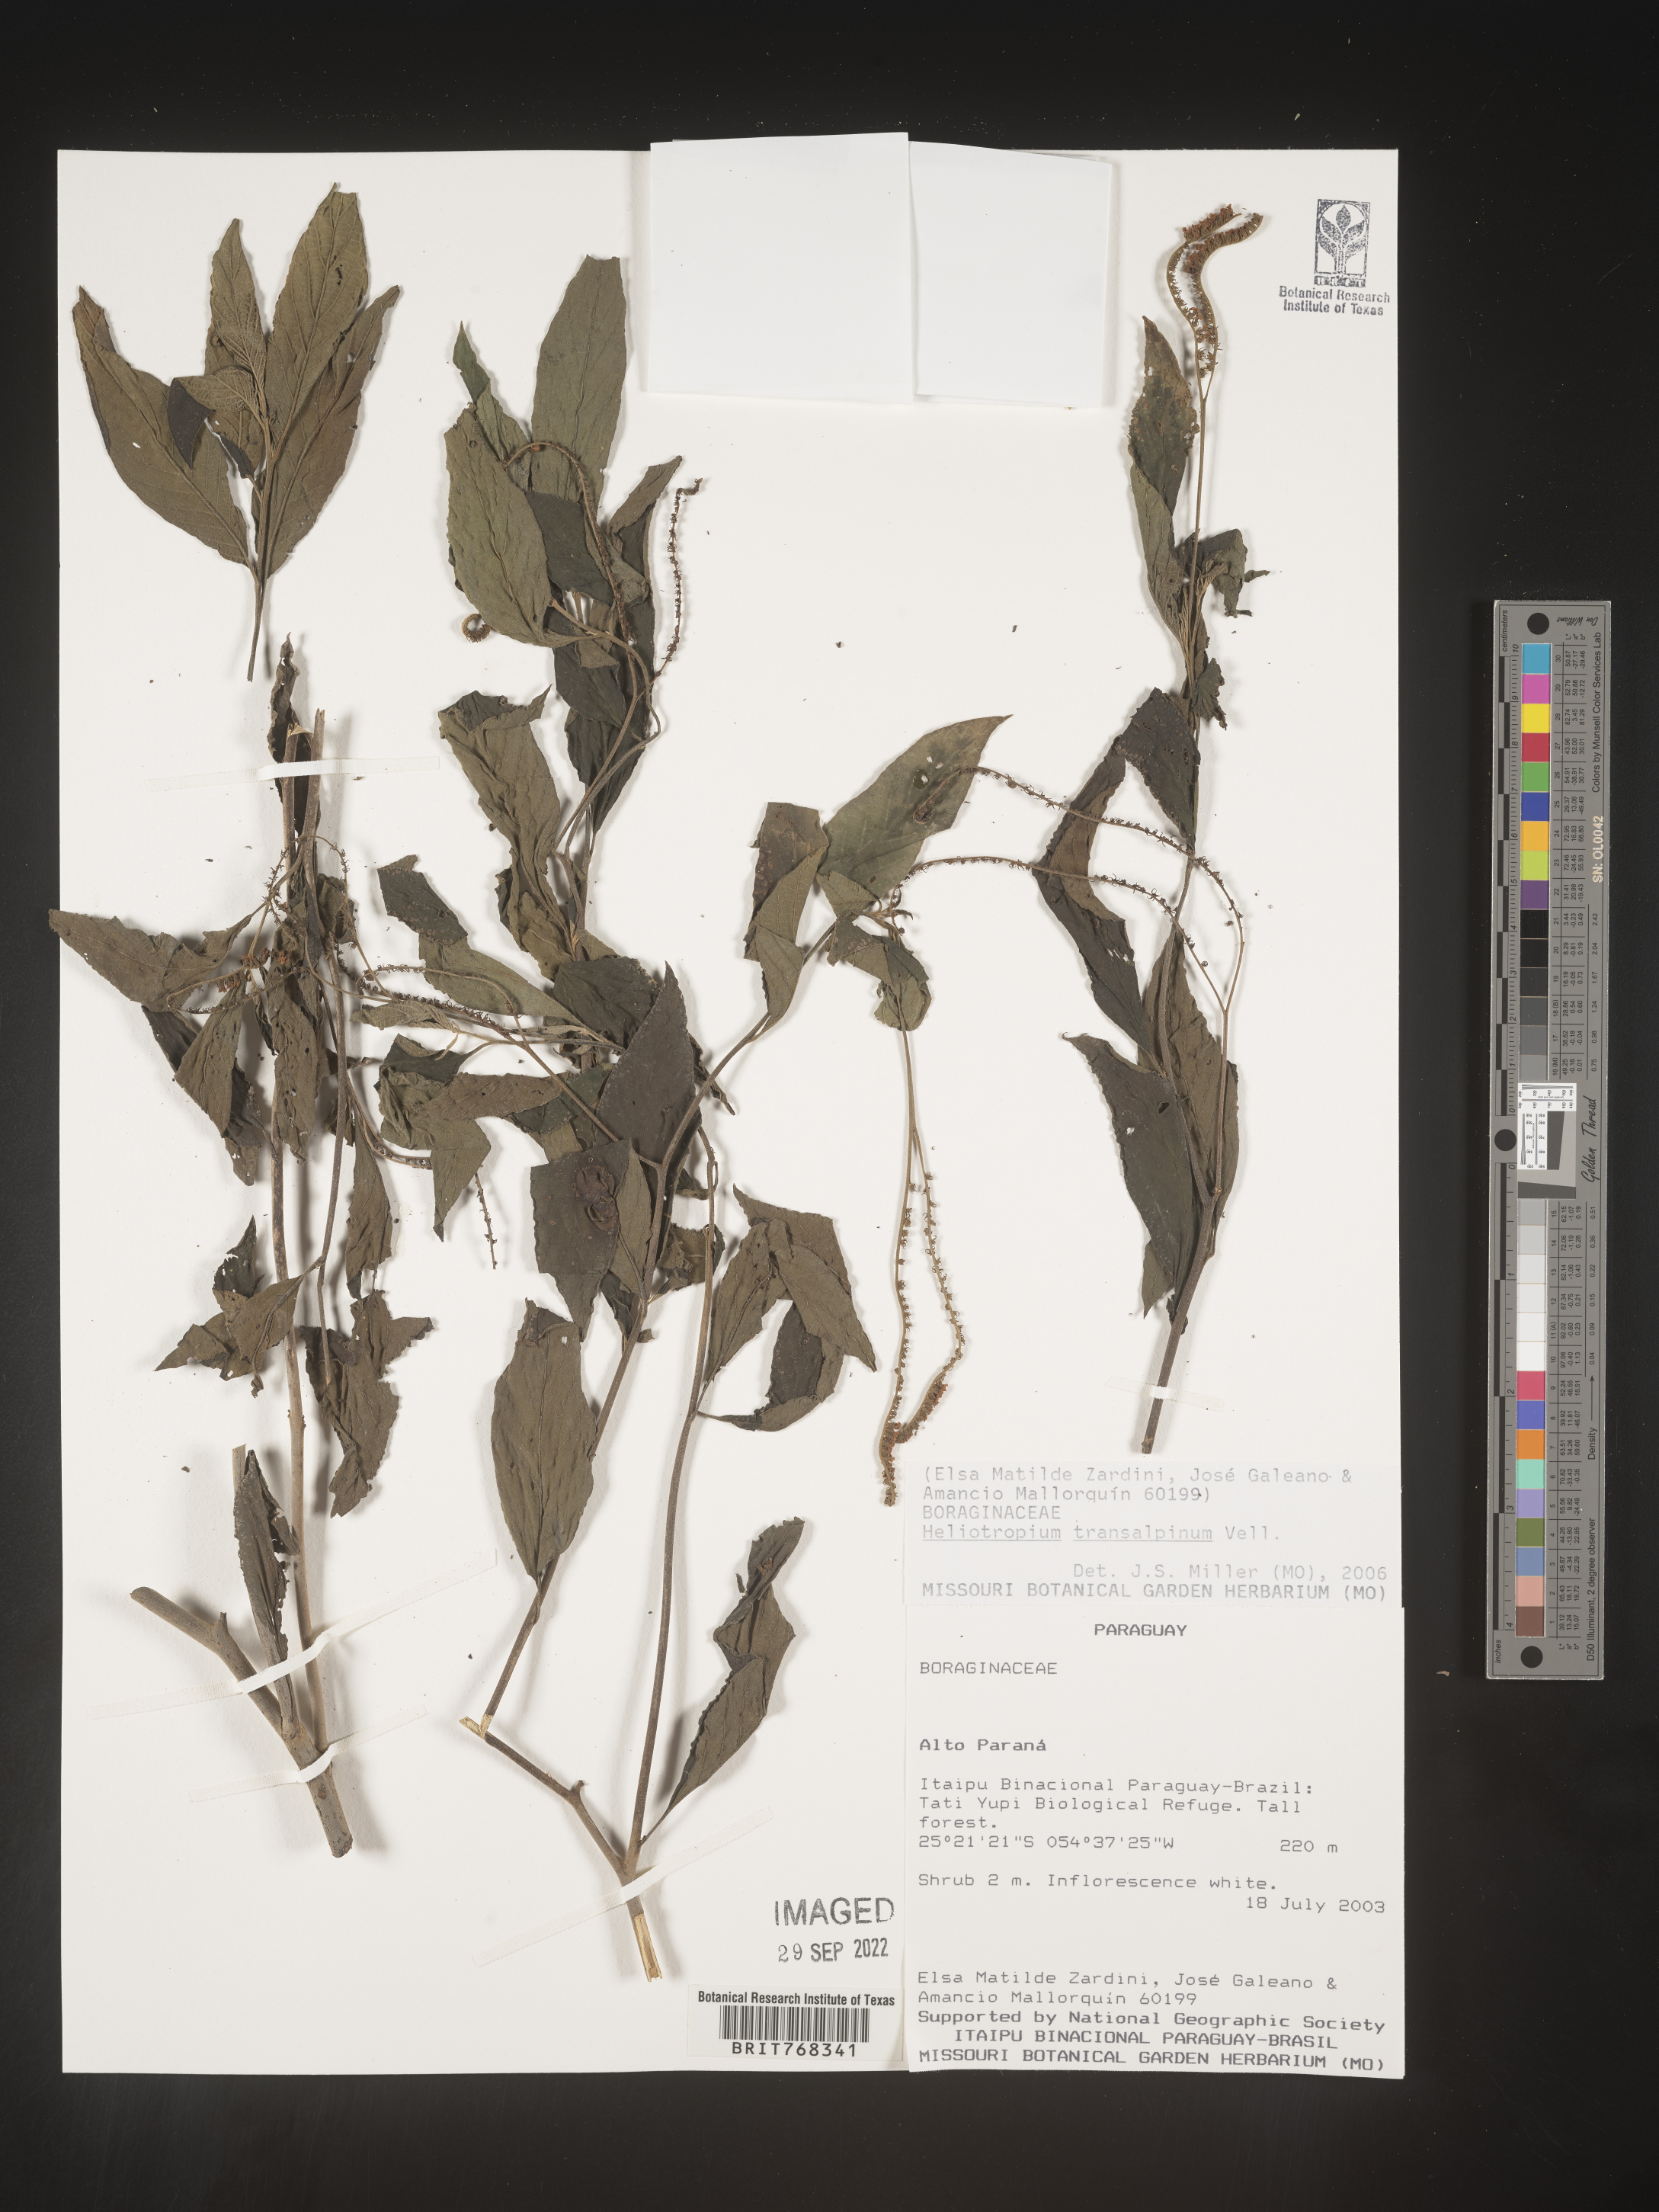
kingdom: Plantae
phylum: Tracheophyta
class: Magnoliopsida
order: Boraginales
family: Heliotropiaceae
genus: Heliotropium
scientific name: Heliotropium
